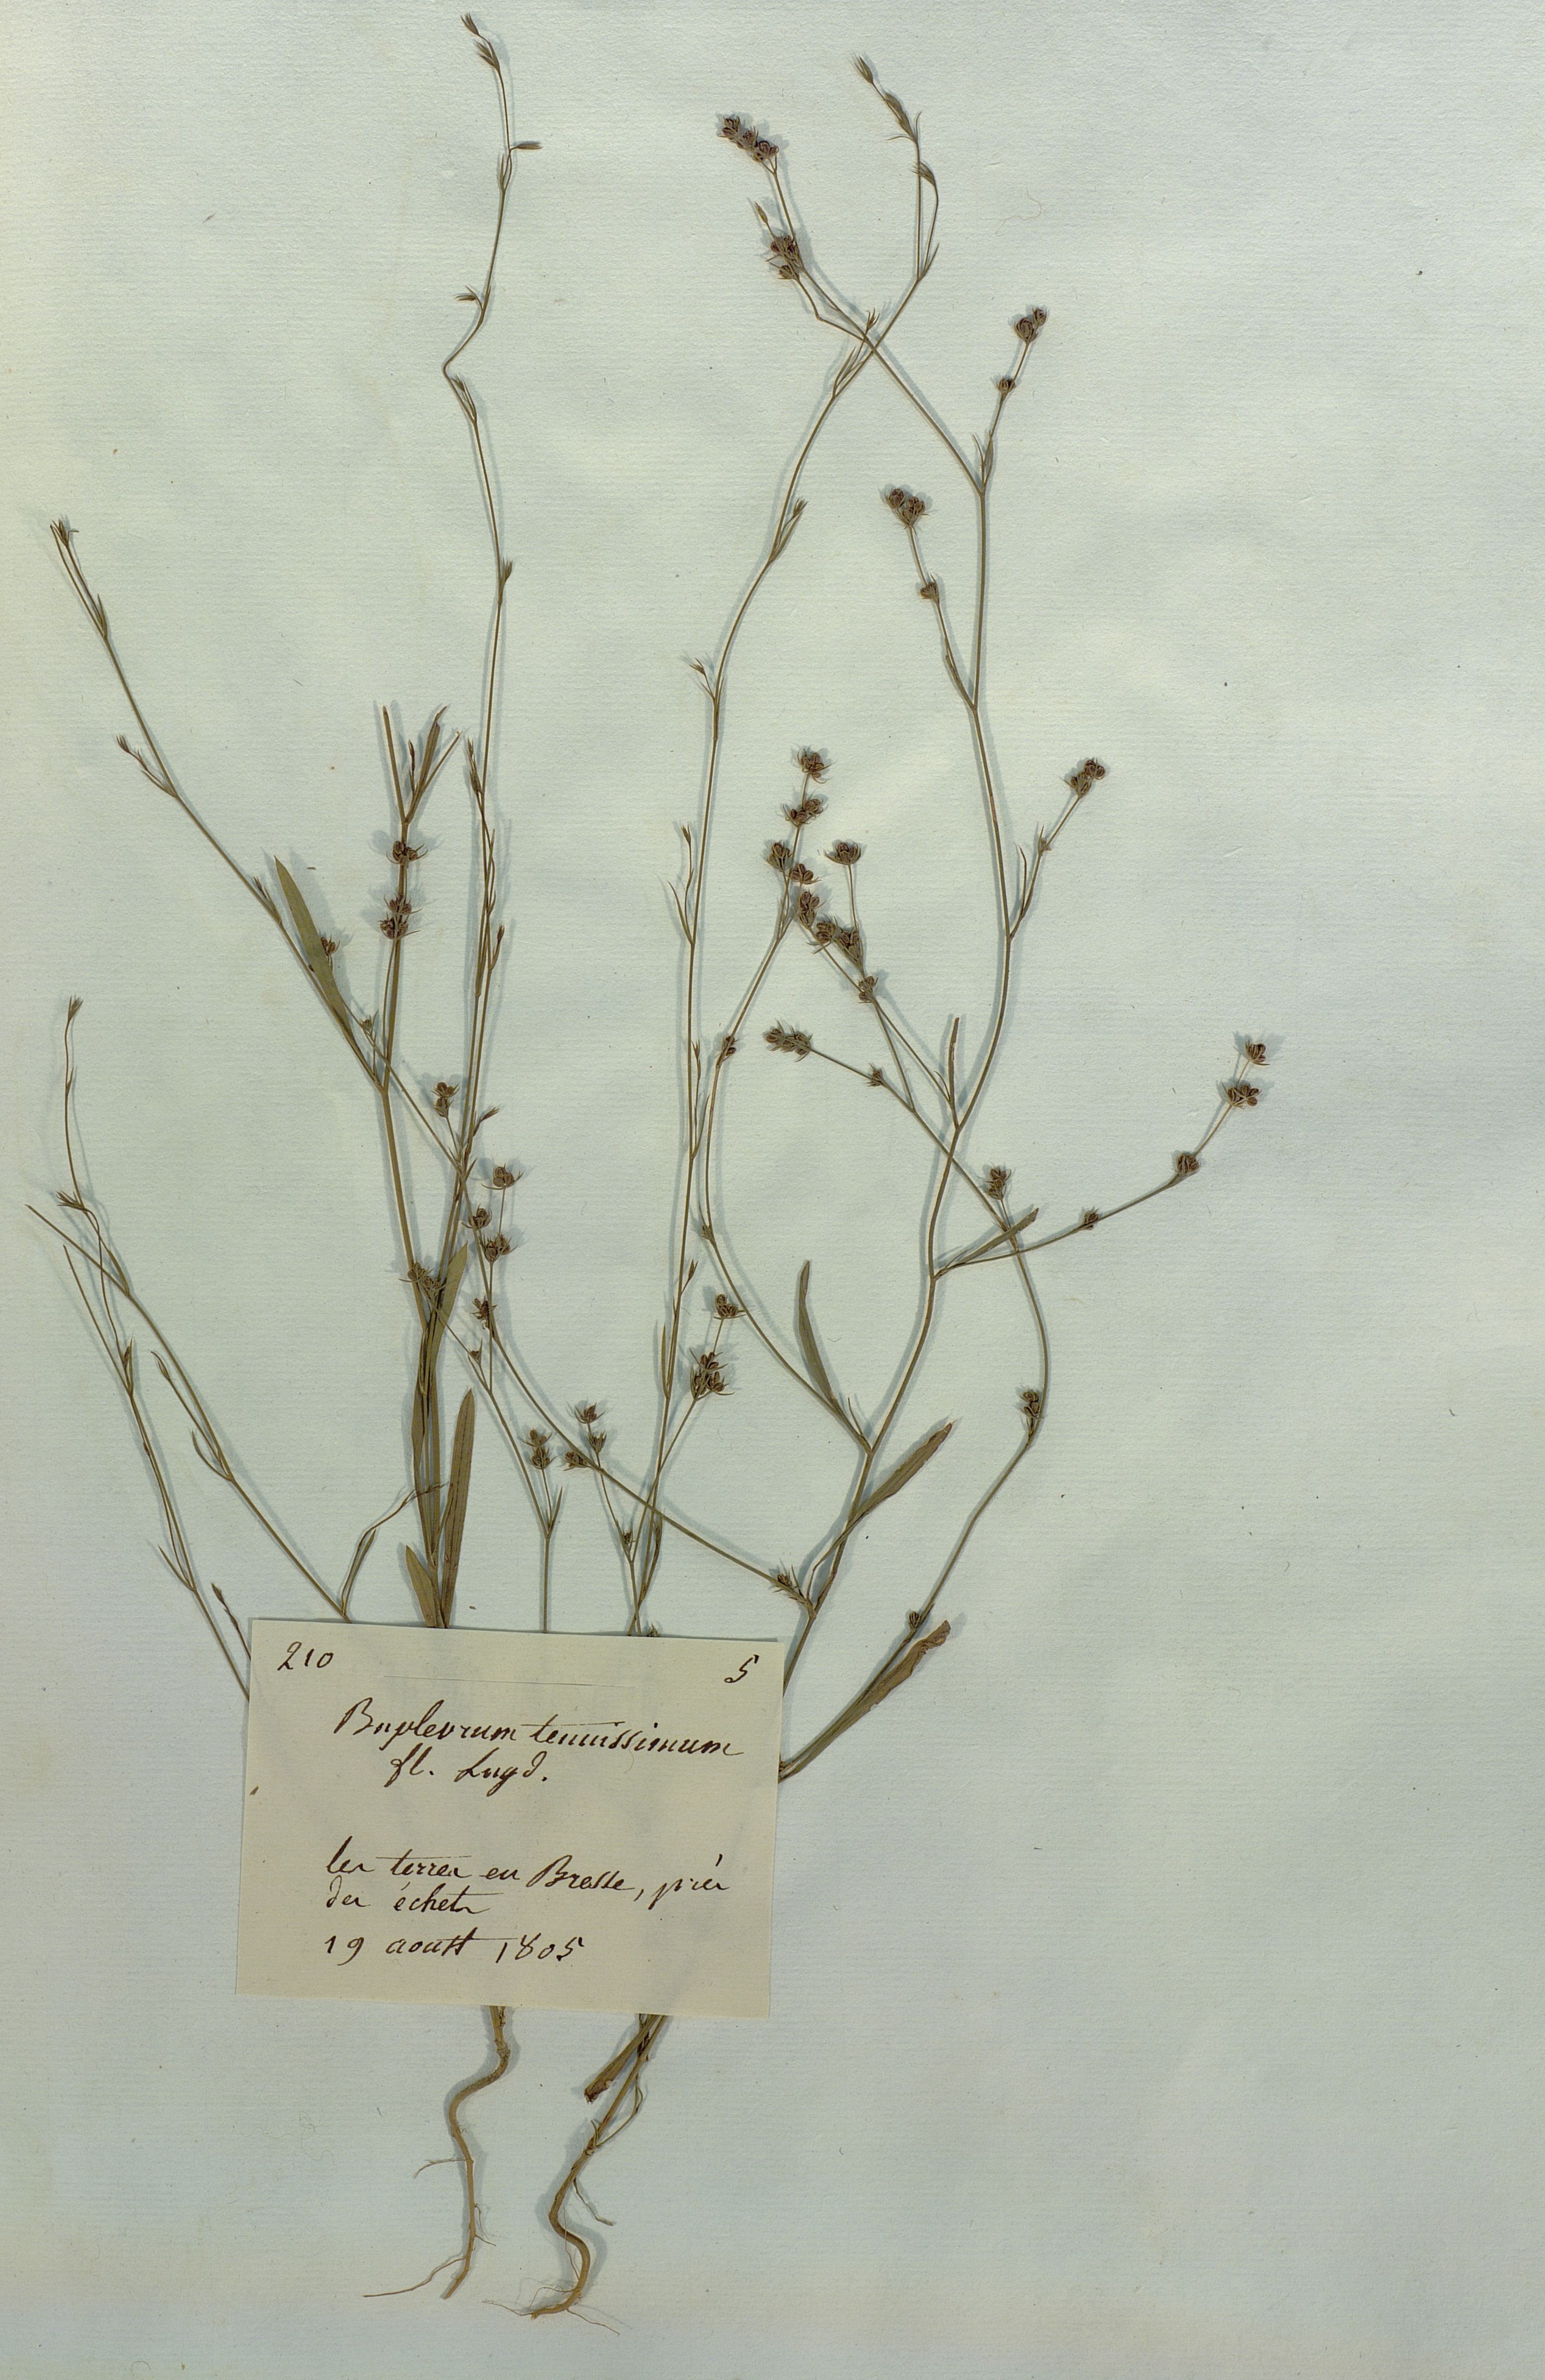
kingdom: Plantae
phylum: Tracheophyta
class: Magnoliopsida
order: Apiales
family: Apiaceae
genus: Bupleurum
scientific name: Bupleurum tenuissimum
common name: Slender hare's-ear
